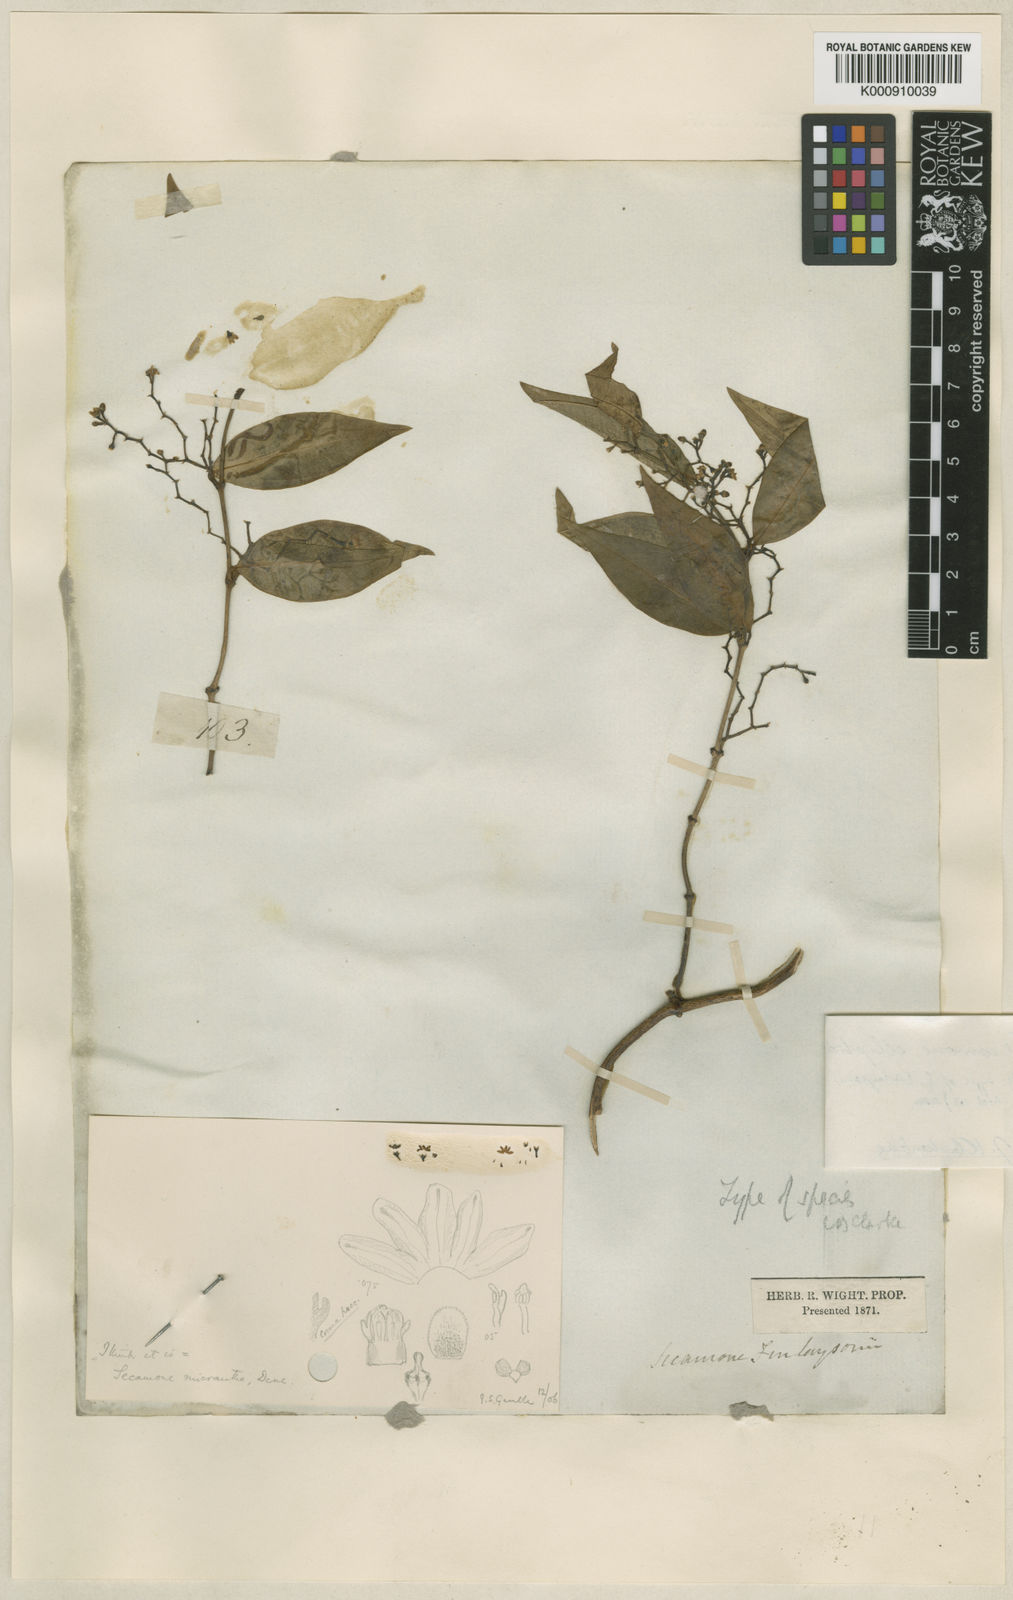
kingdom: Plantae
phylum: Tracheophyta
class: Magnoliopsida
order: Gentianales
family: Apocynaceae
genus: Secamone
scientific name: Secamone elliptica
